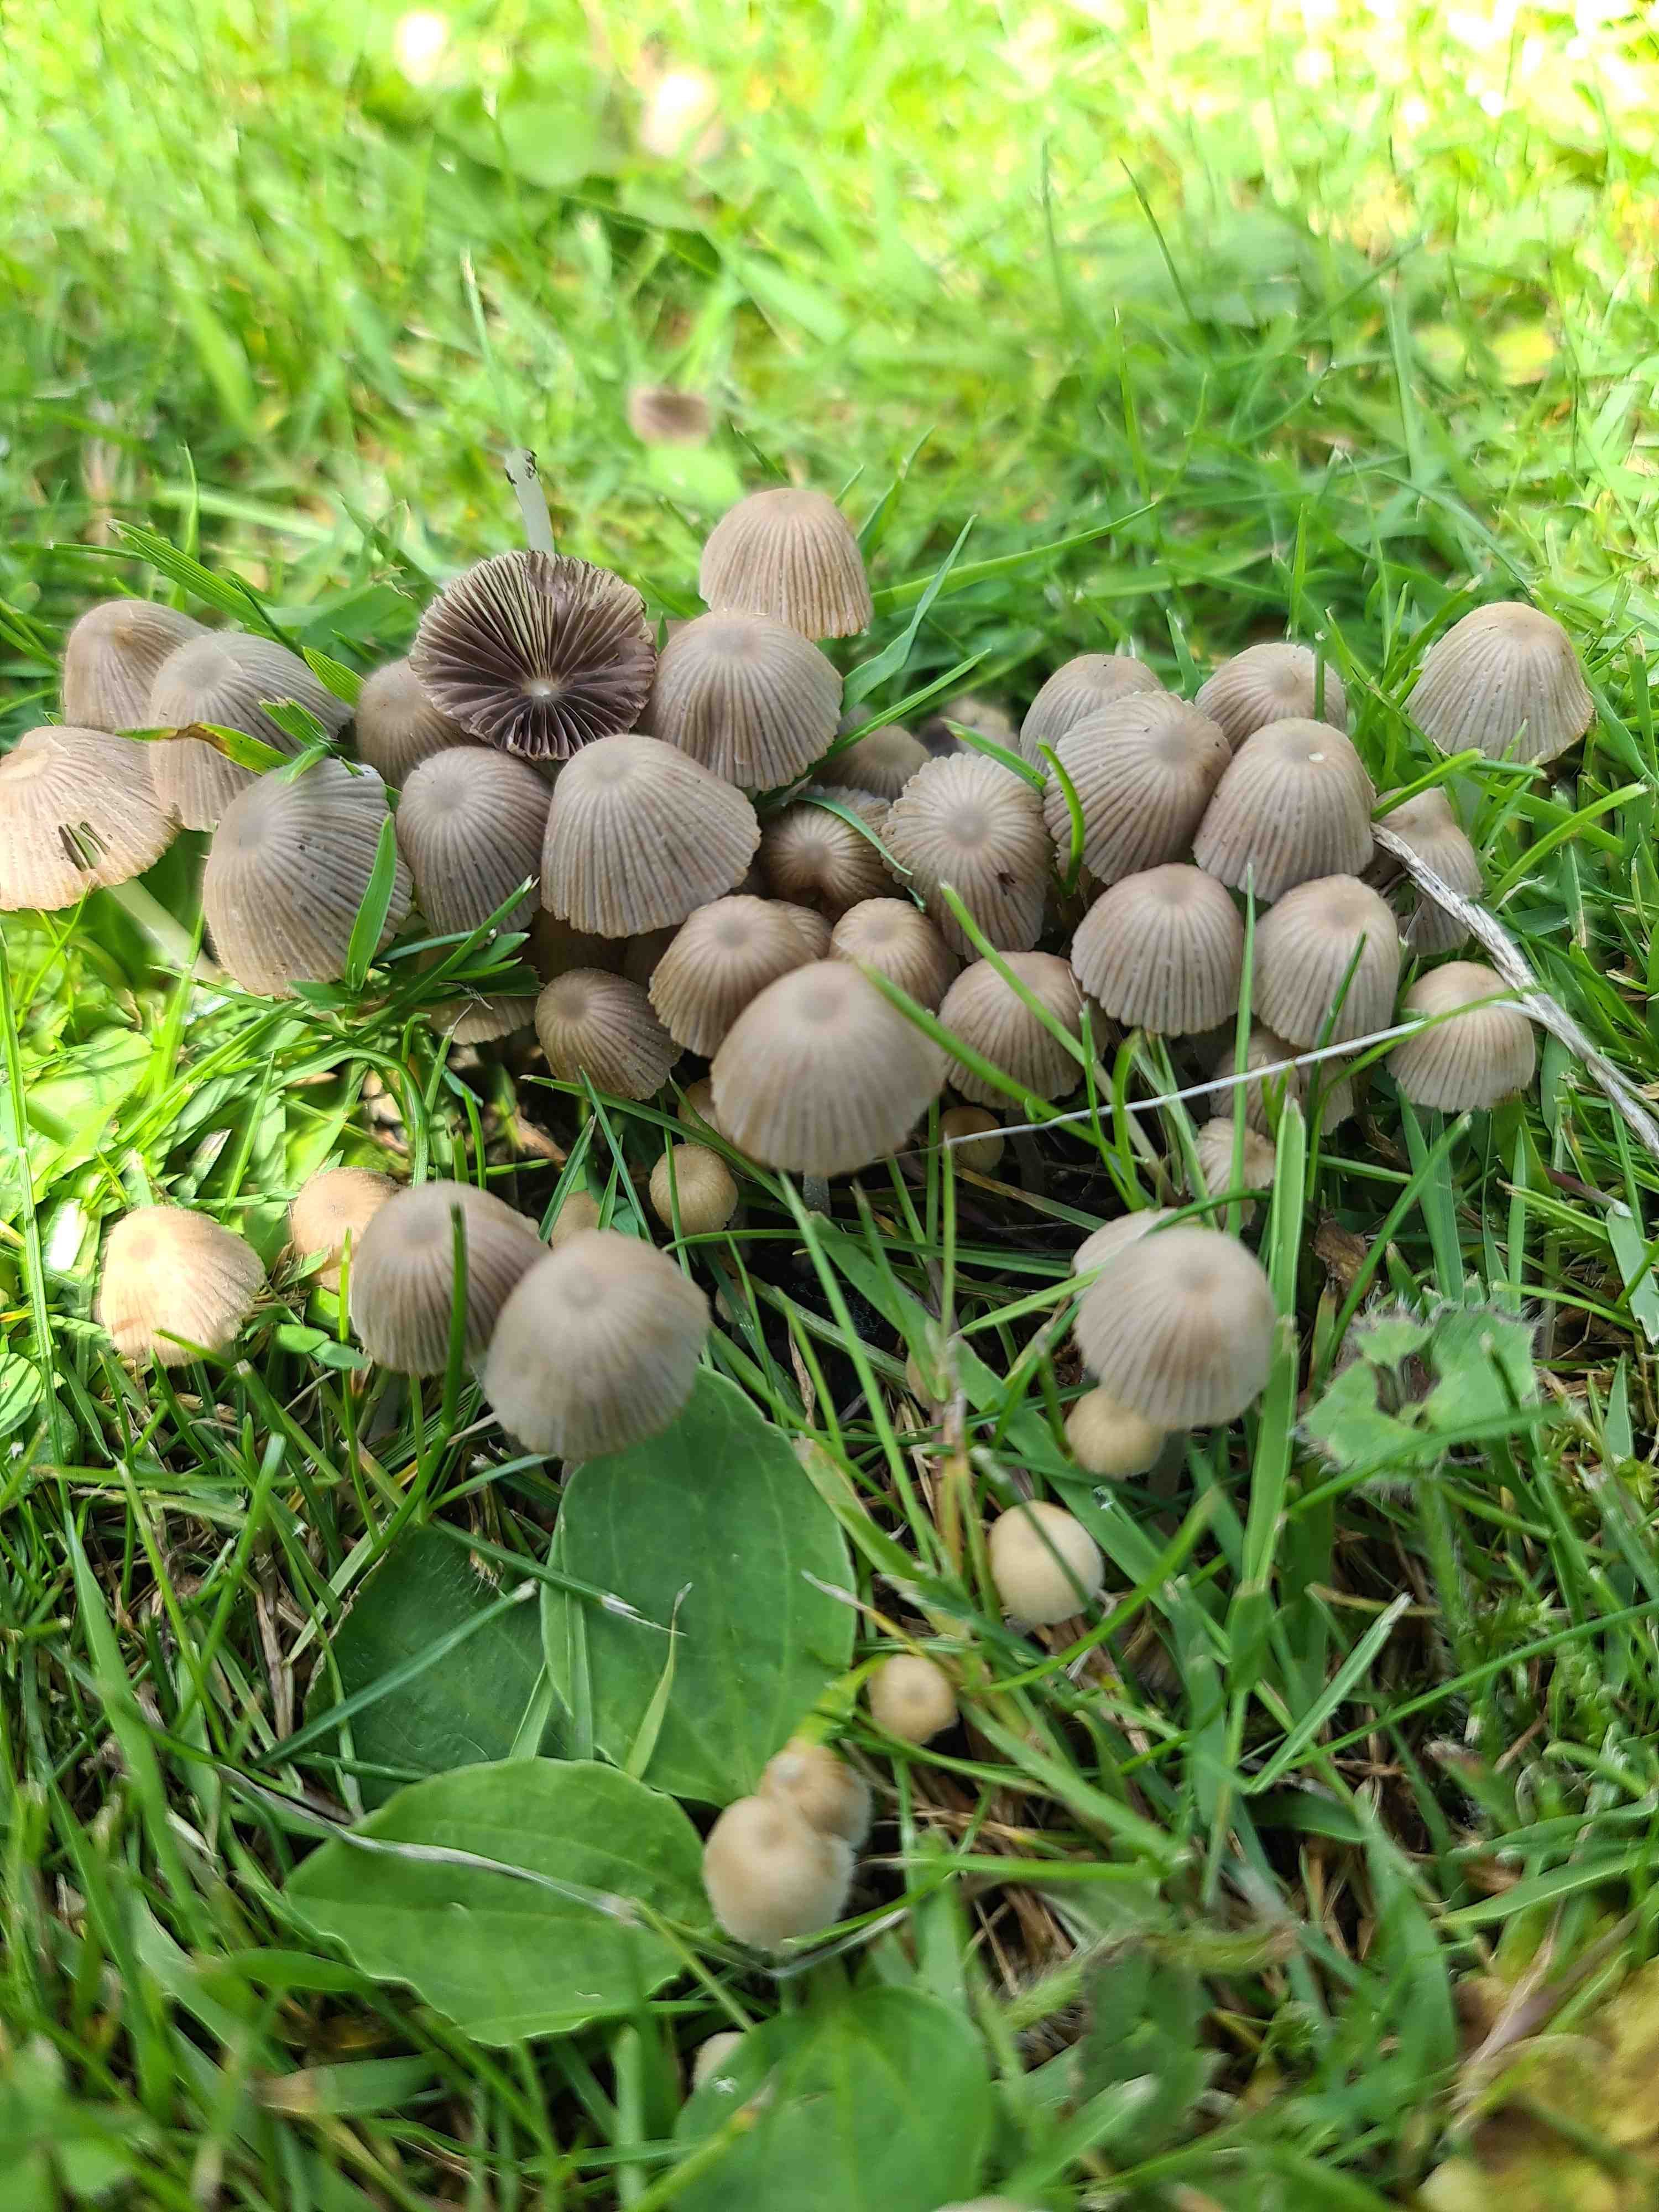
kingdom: Fungi
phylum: Basidiomycota
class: Agaricomycetes
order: Agaricales
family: Psathyrellaceae
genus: Coprinellus
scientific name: Coprinellus disseminatus
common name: bredsået blækhat
